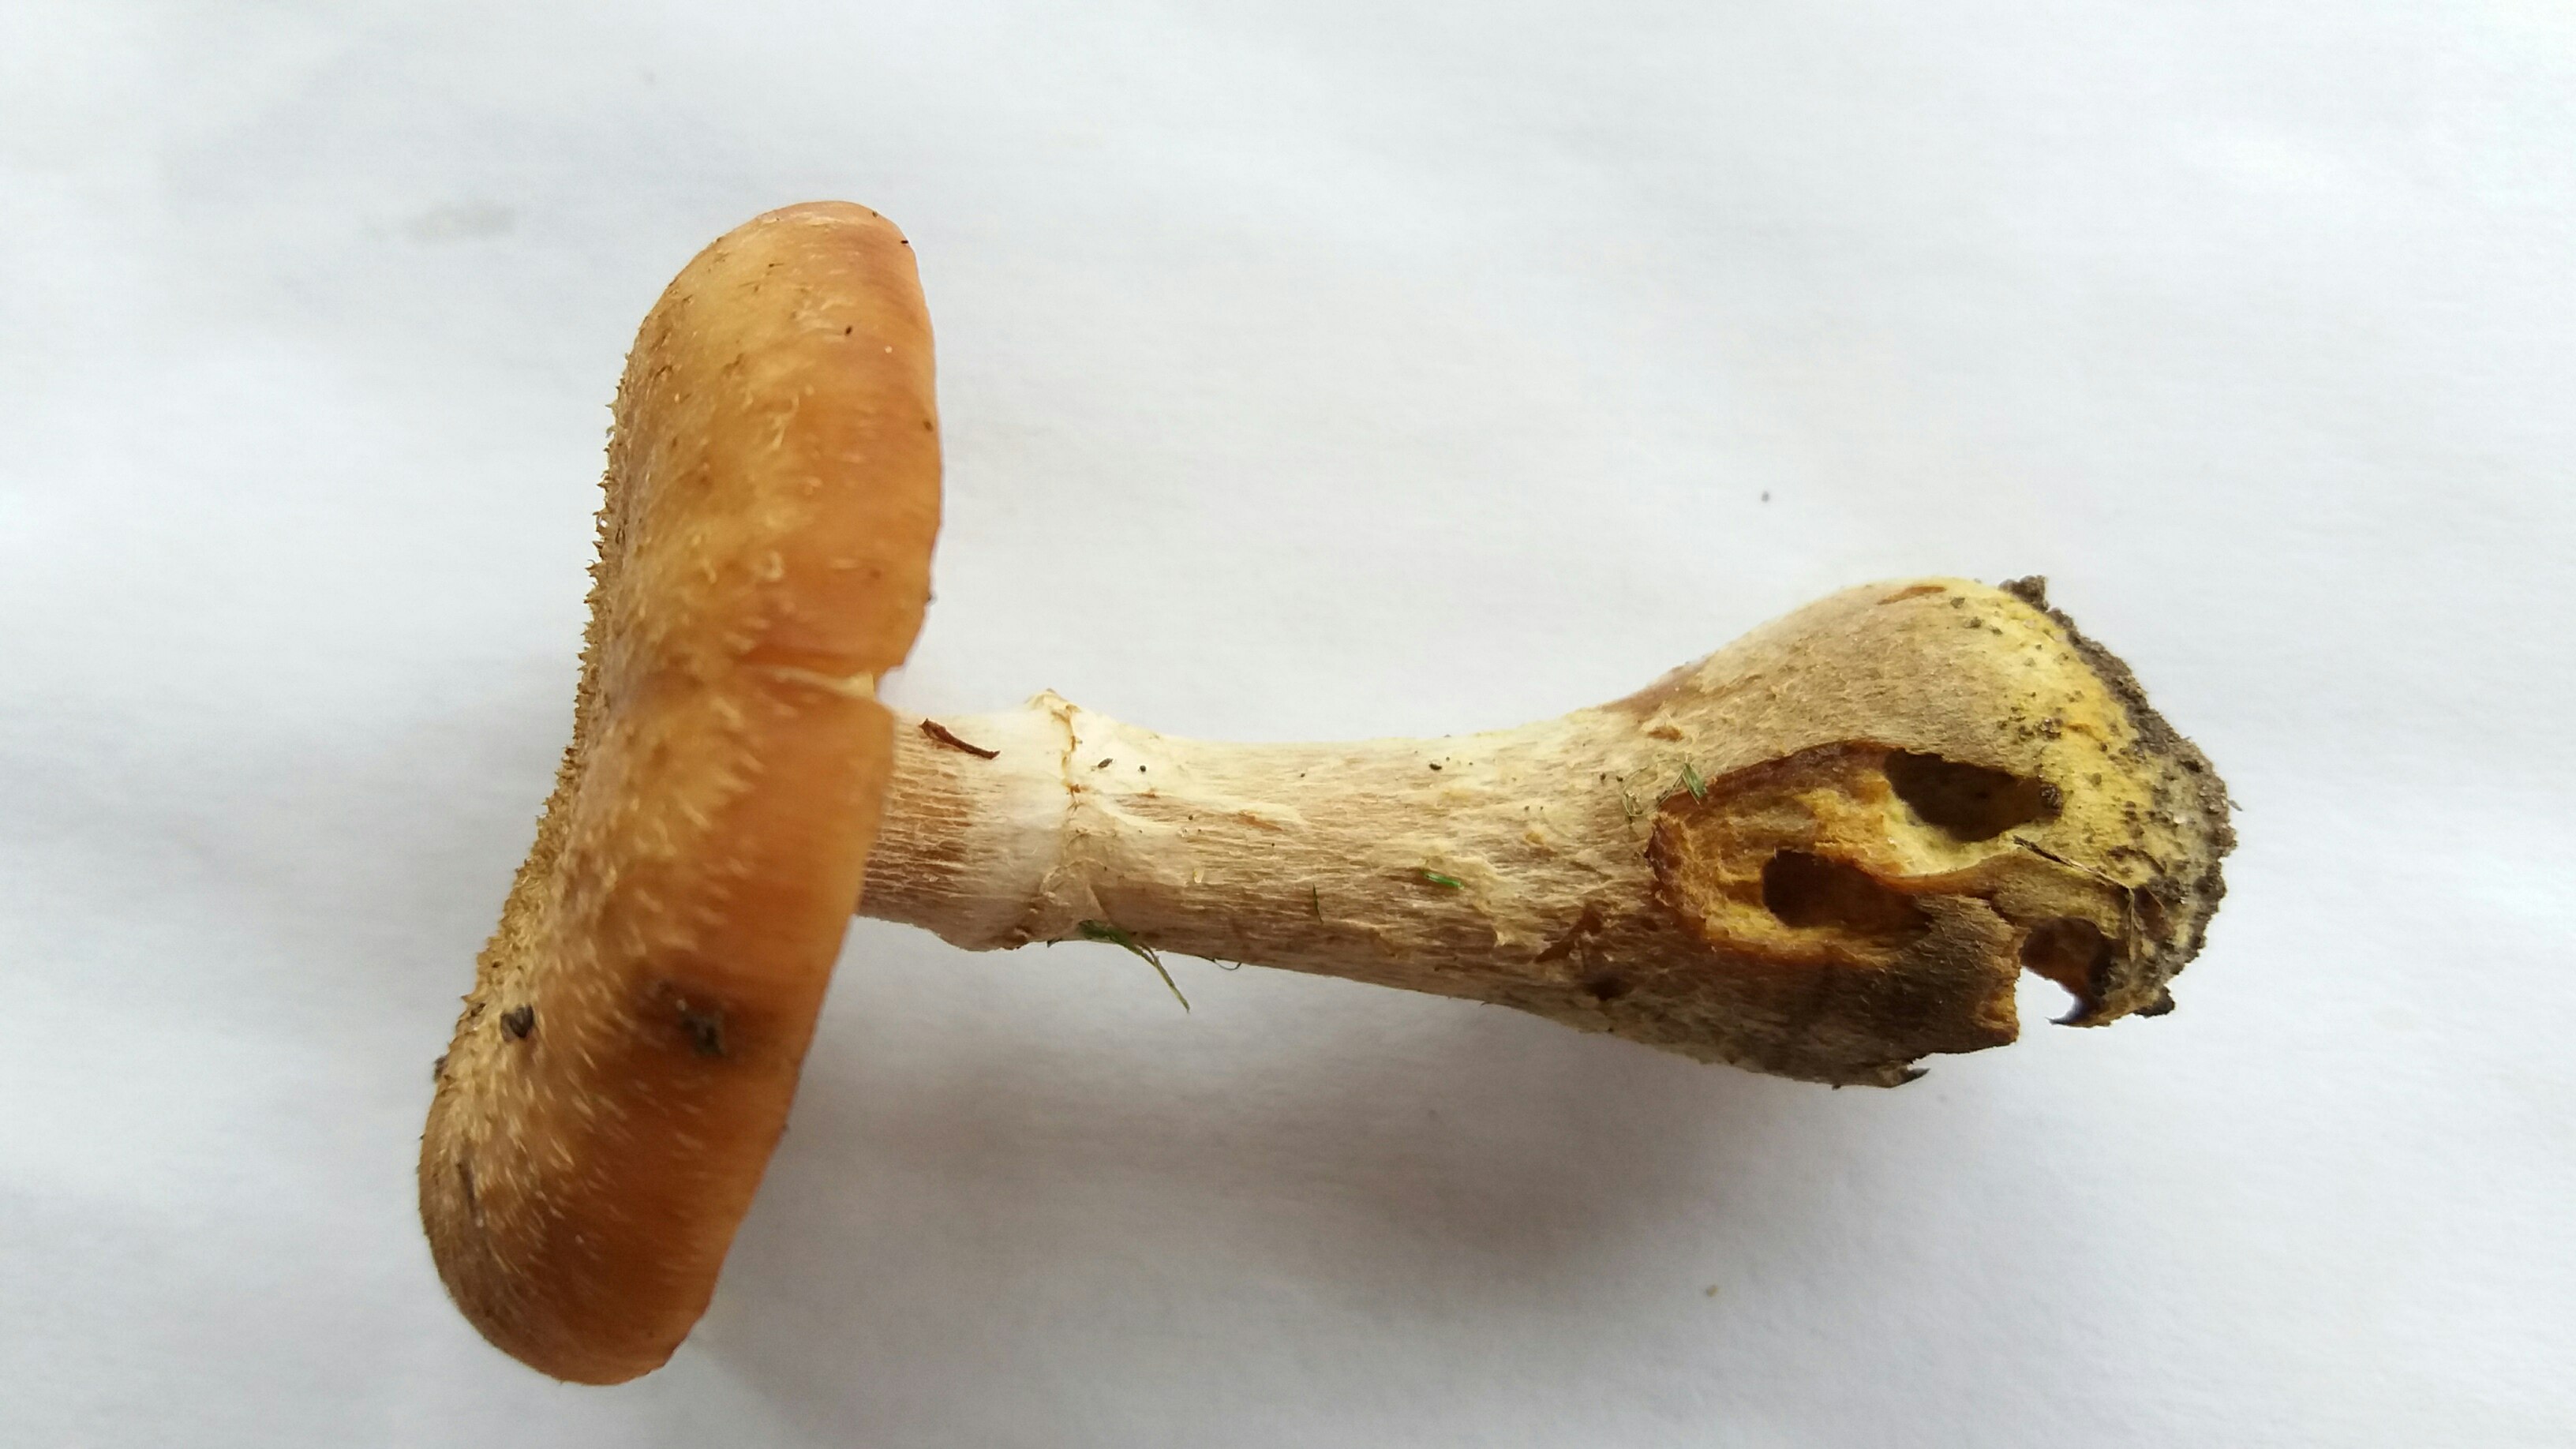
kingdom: Fungi
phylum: Basidiomycota
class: Agaricomycetes
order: Agaricales
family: Physalacriaceae
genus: Armillaria
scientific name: Armillaria lutea
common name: køllestokket honningsvamp
